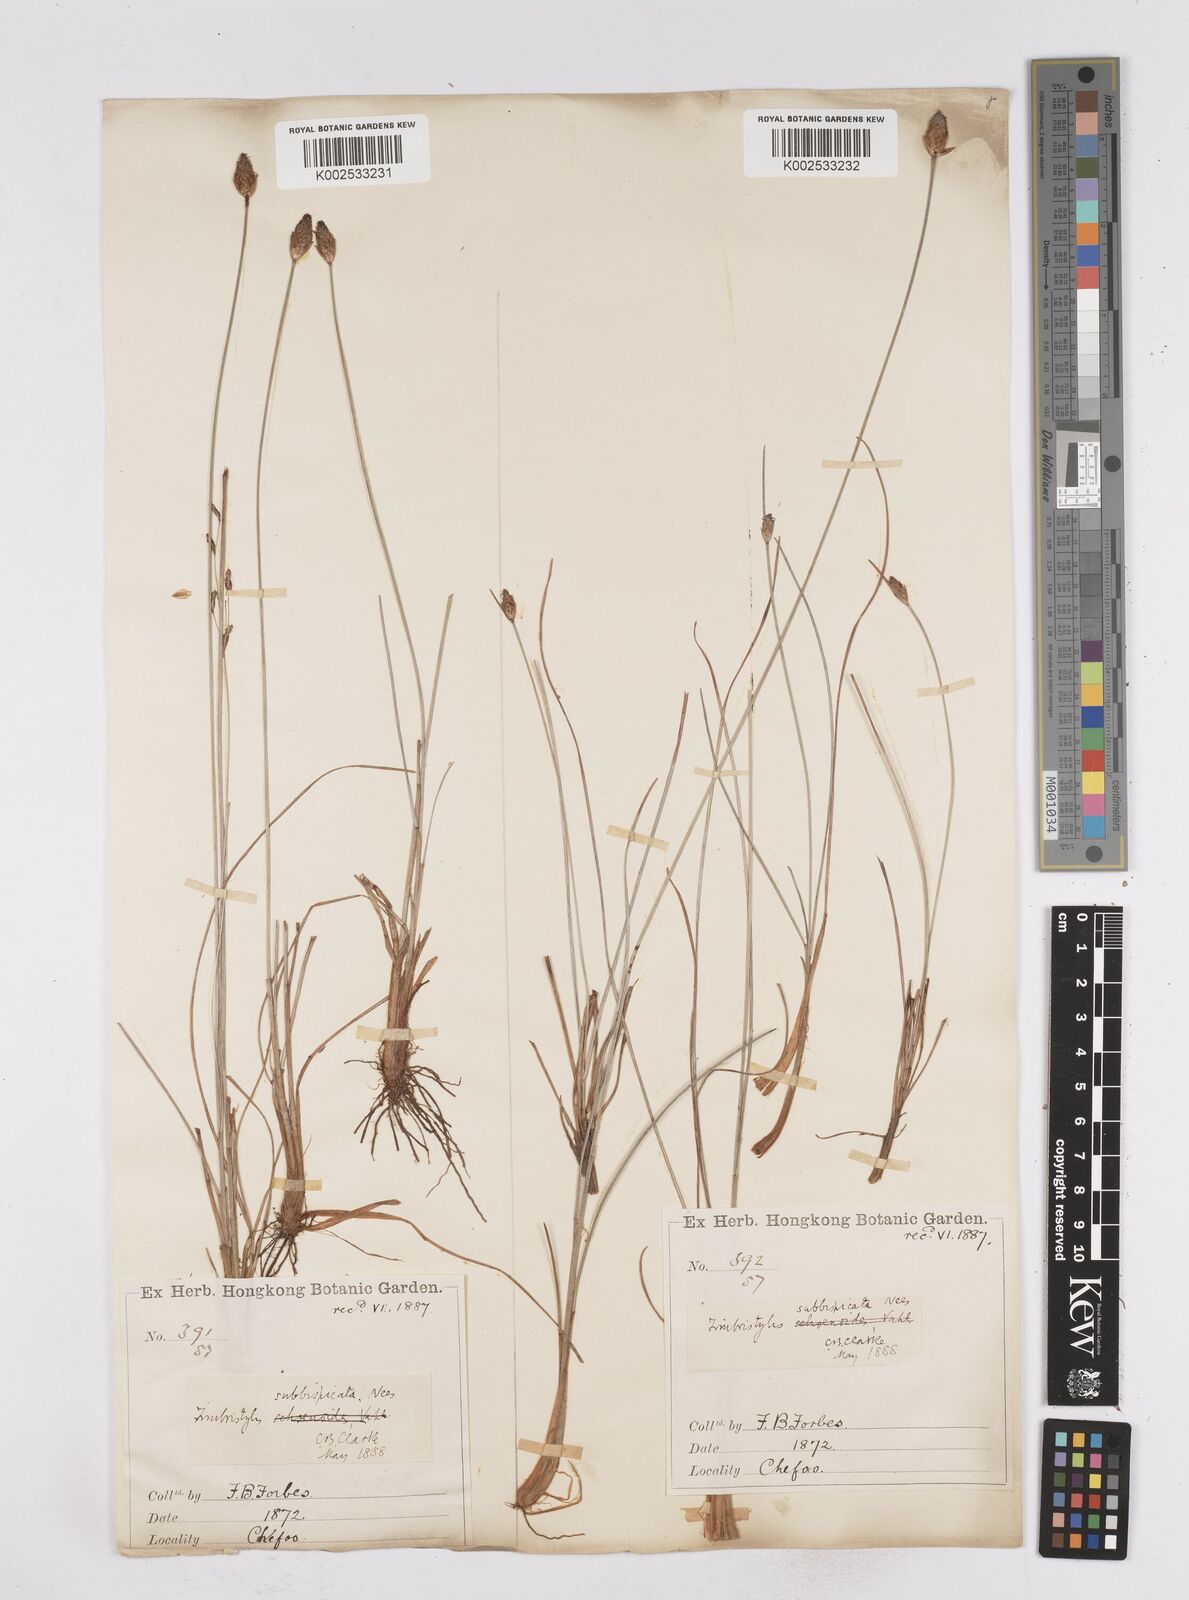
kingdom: Plantae
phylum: Tracheophyta
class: Liliopsida
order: Poales
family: Cyperaceae
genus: Fimbristylis
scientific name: Fimbristylis tristachya
